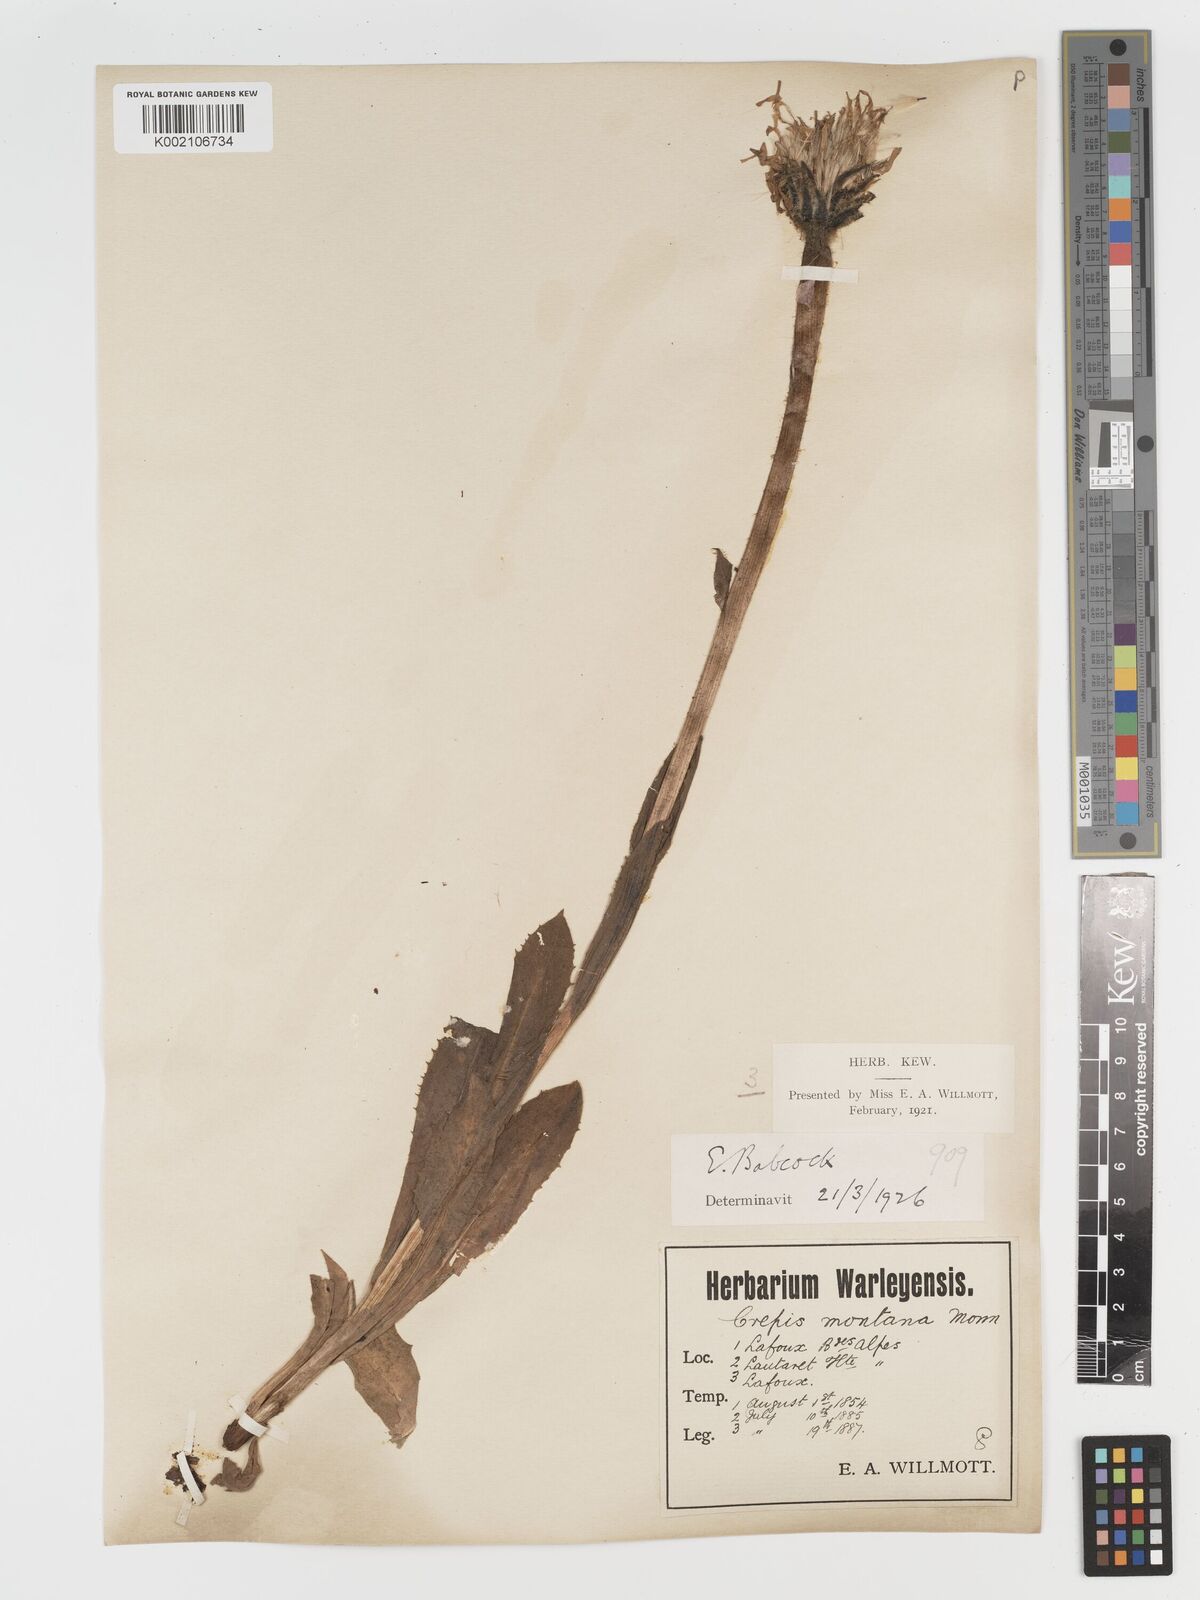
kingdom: Plantae
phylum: Tracheophyta
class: Magnoliopsida
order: Asterales
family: Asteraceae
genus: Crepis
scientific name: Crepis pontana
